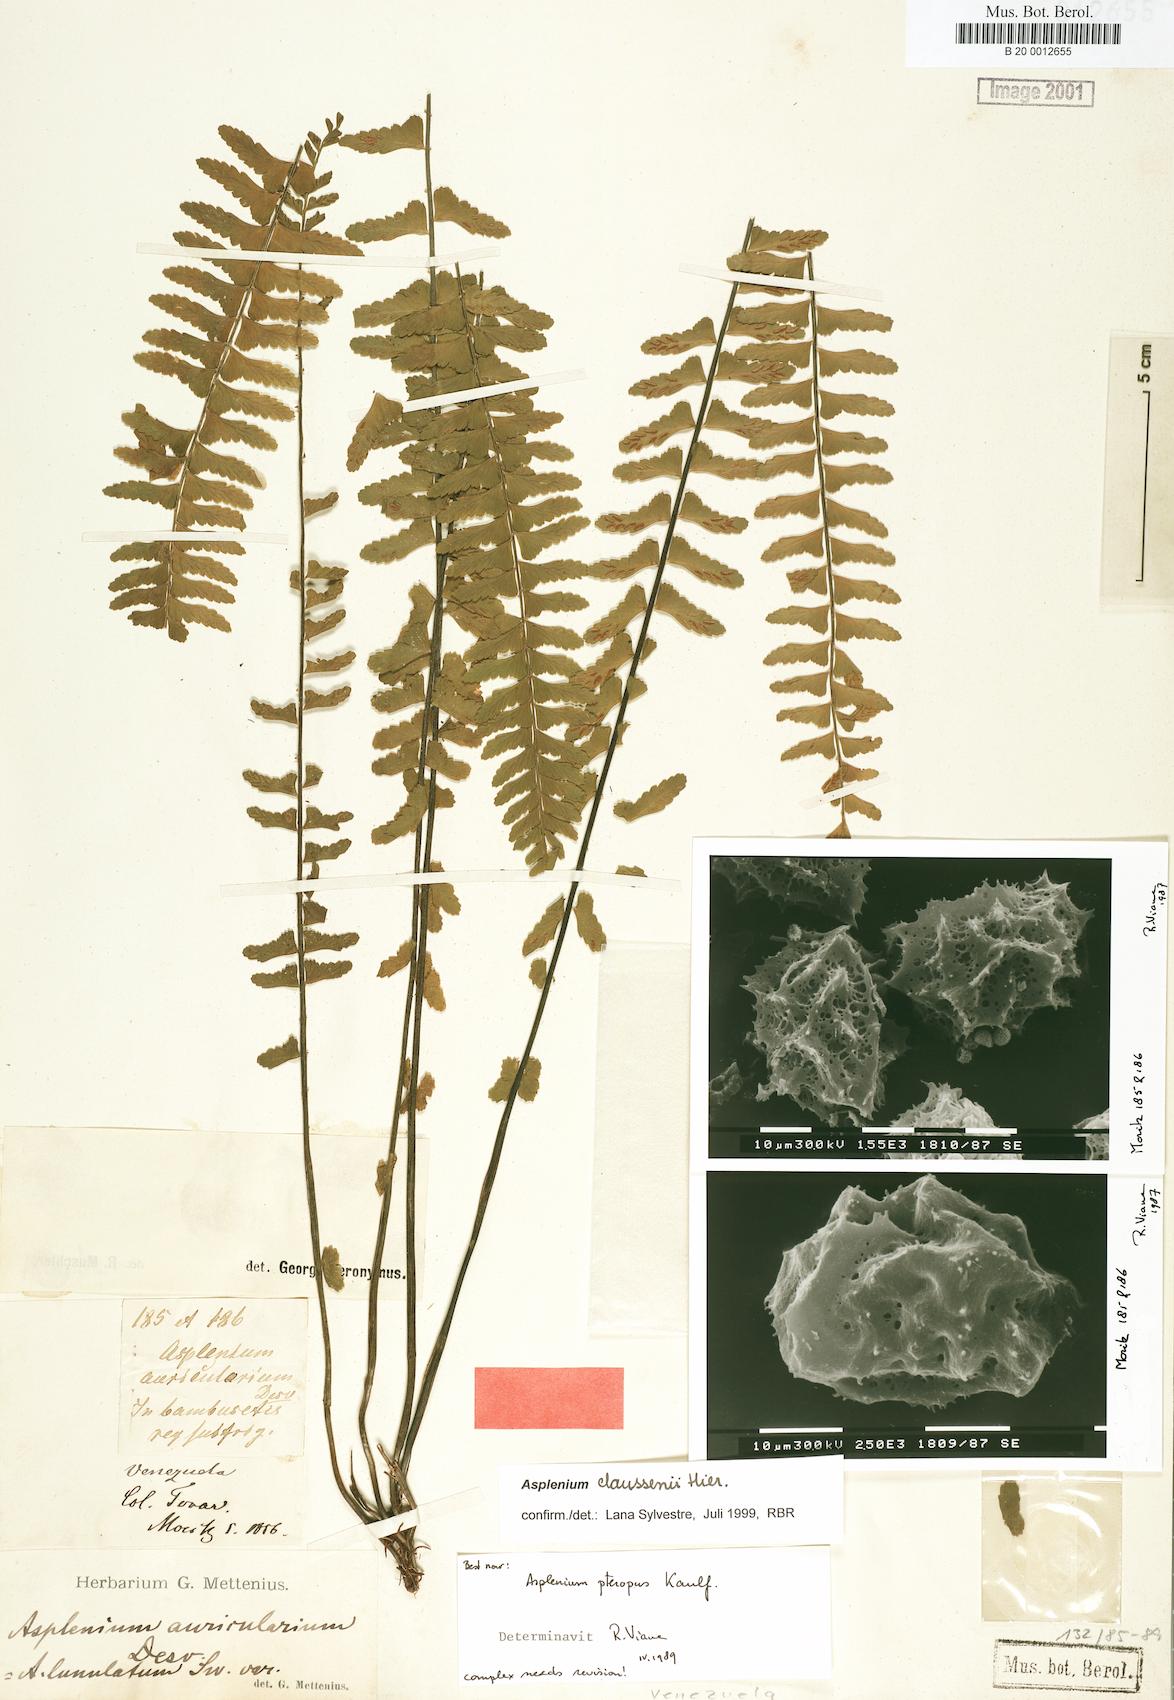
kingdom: Plantae
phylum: Tracheophyta
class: Polypodiopsida
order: Polypodiales
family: Aspleniaceae
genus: Asplenium
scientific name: Asplenium rhomboidale
